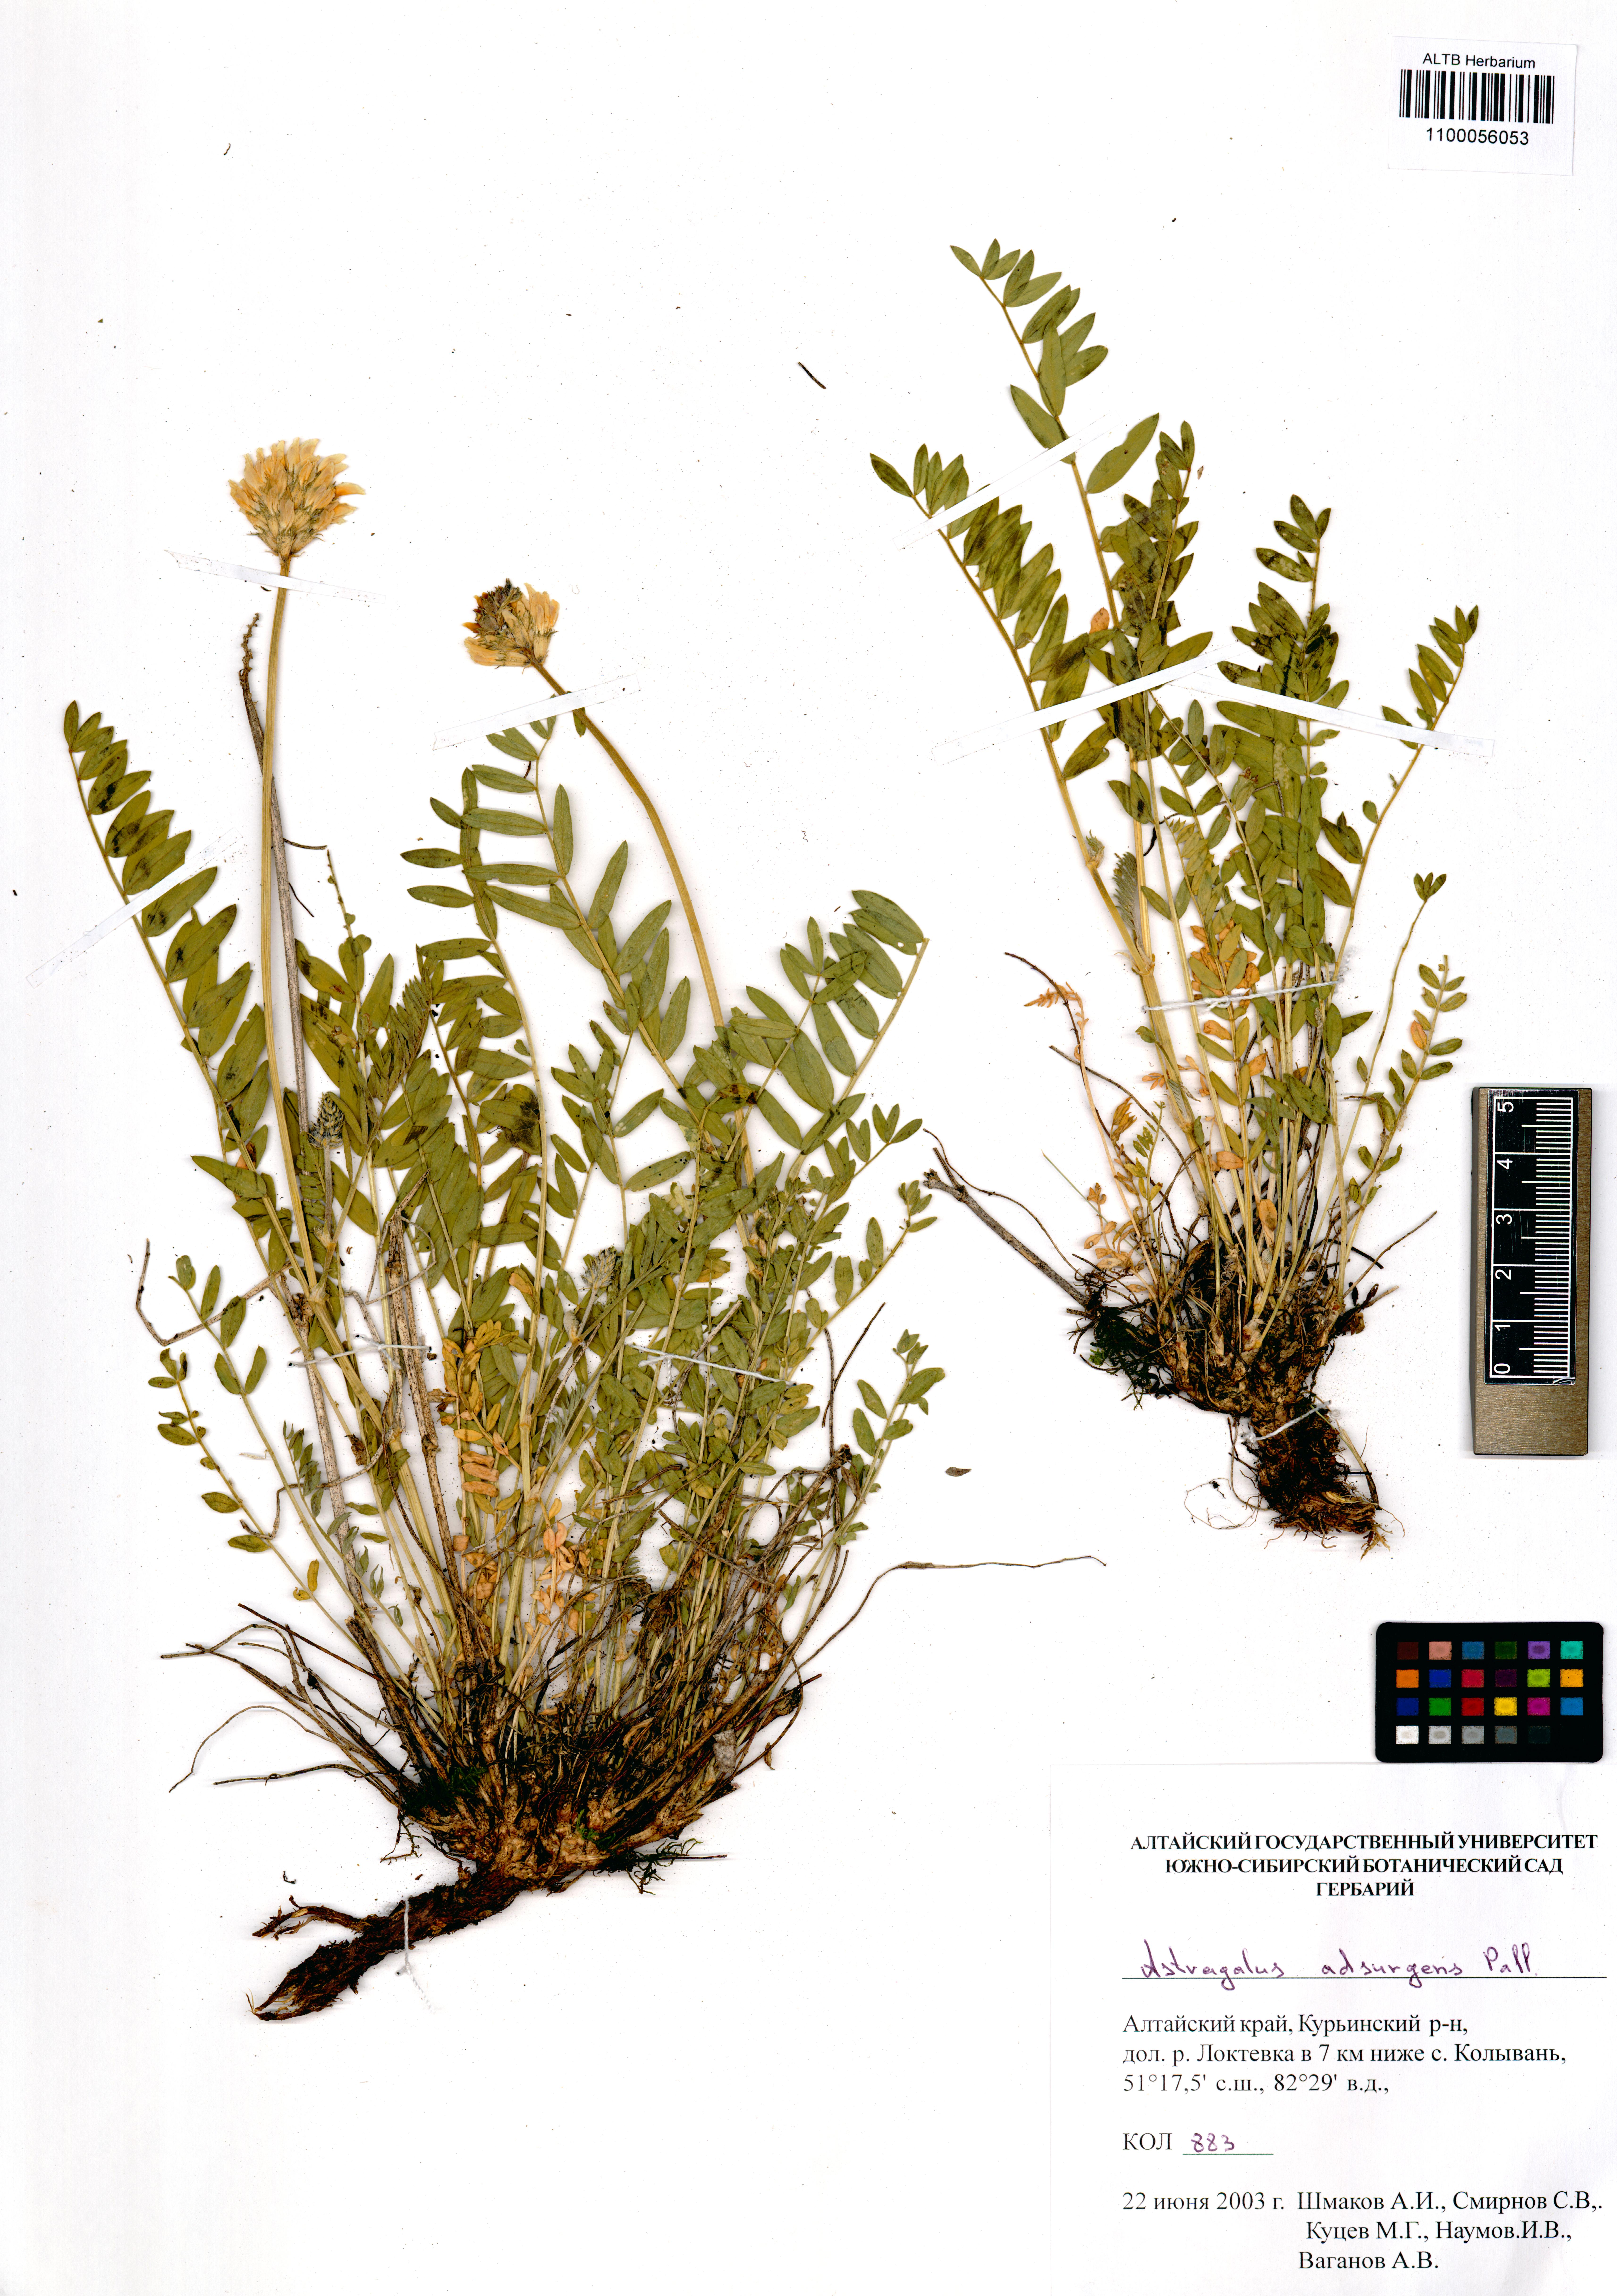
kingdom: Plantae
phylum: Tracheophyta
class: Magnoliopsida
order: Fabales
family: Fabaceae
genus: Astragalus
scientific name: Astragalus laxmannii
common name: Laxmann's milk-vetch
